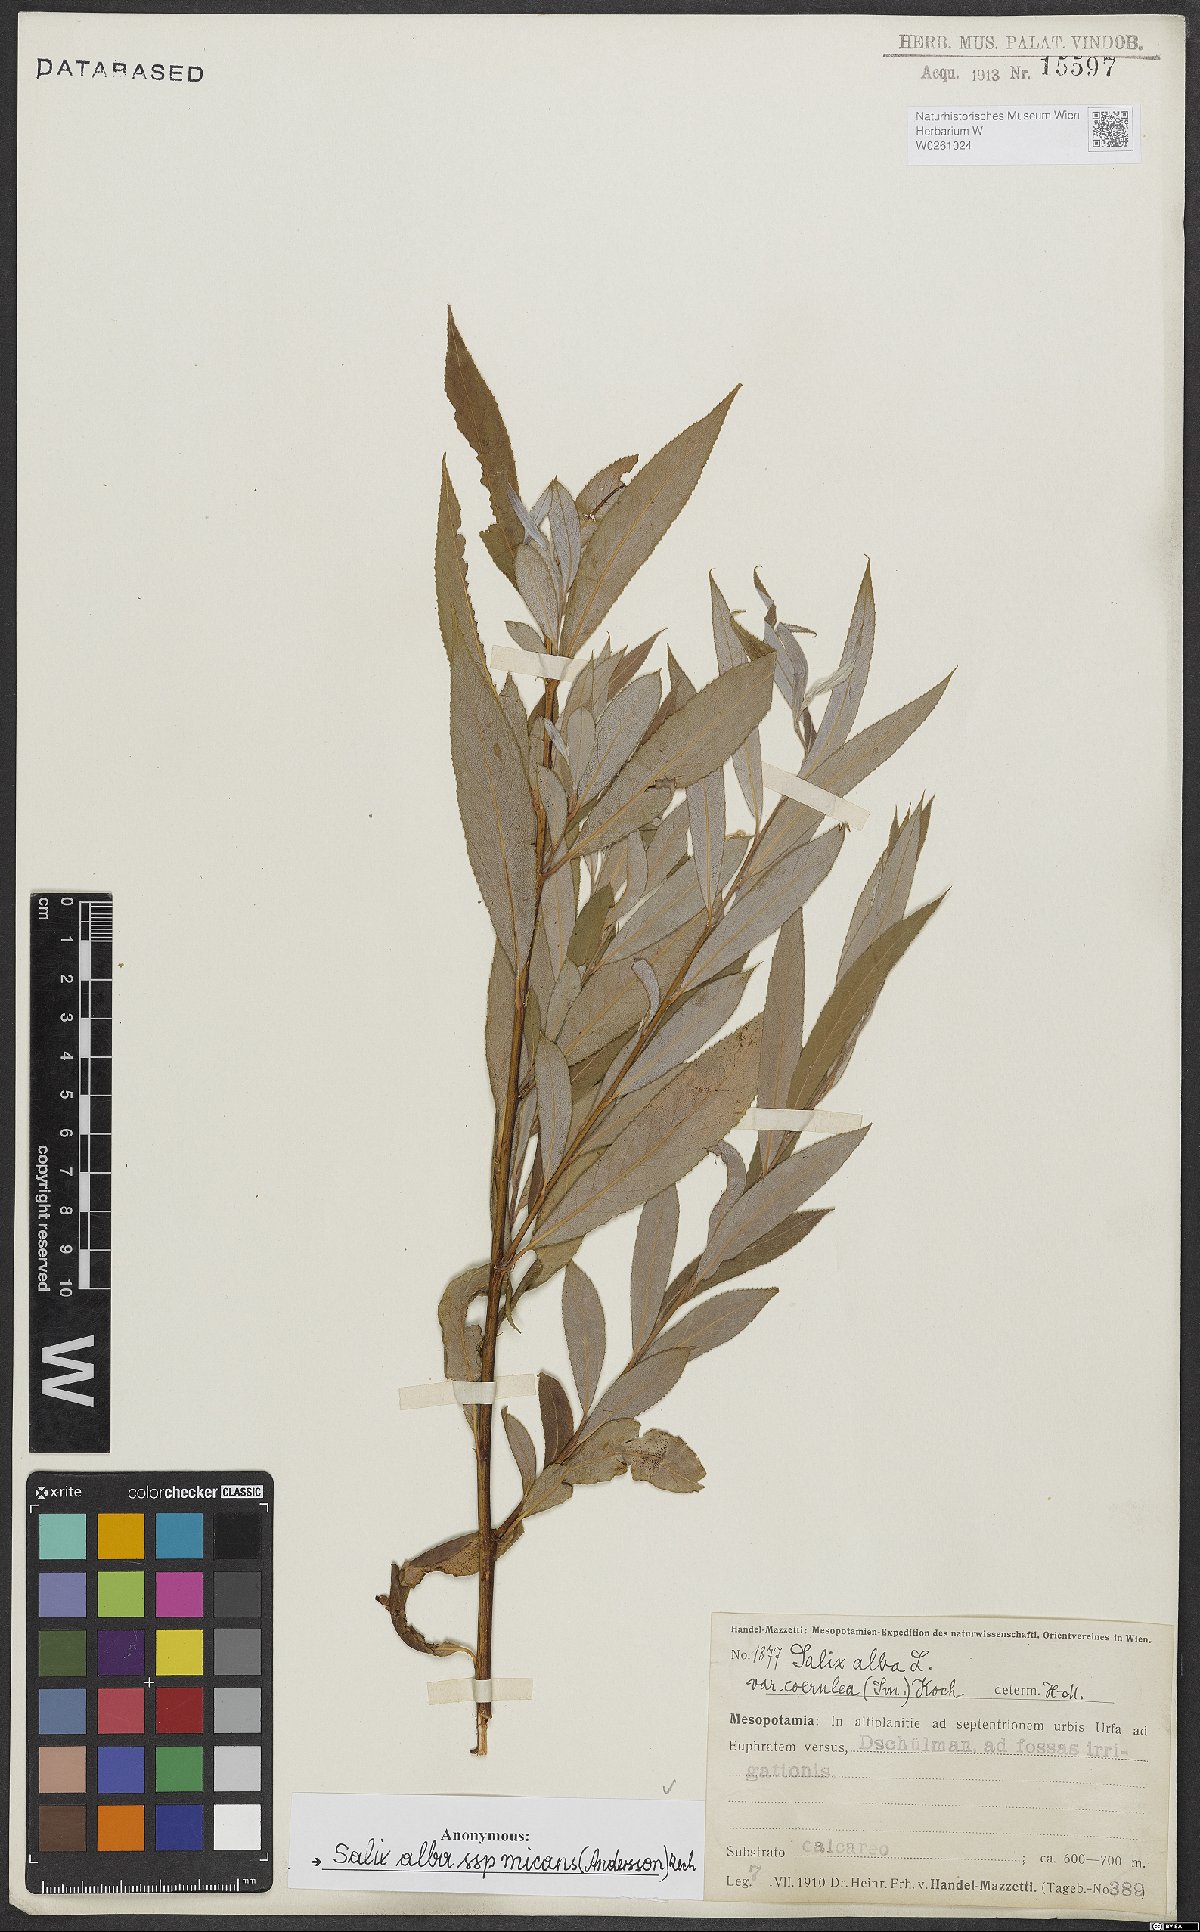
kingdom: Plantae
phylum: Tracheophyta
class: Magnoliopsida
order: Malpighiales
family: Salicaceae
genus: Salix
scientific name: Salix alba
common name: White willow
